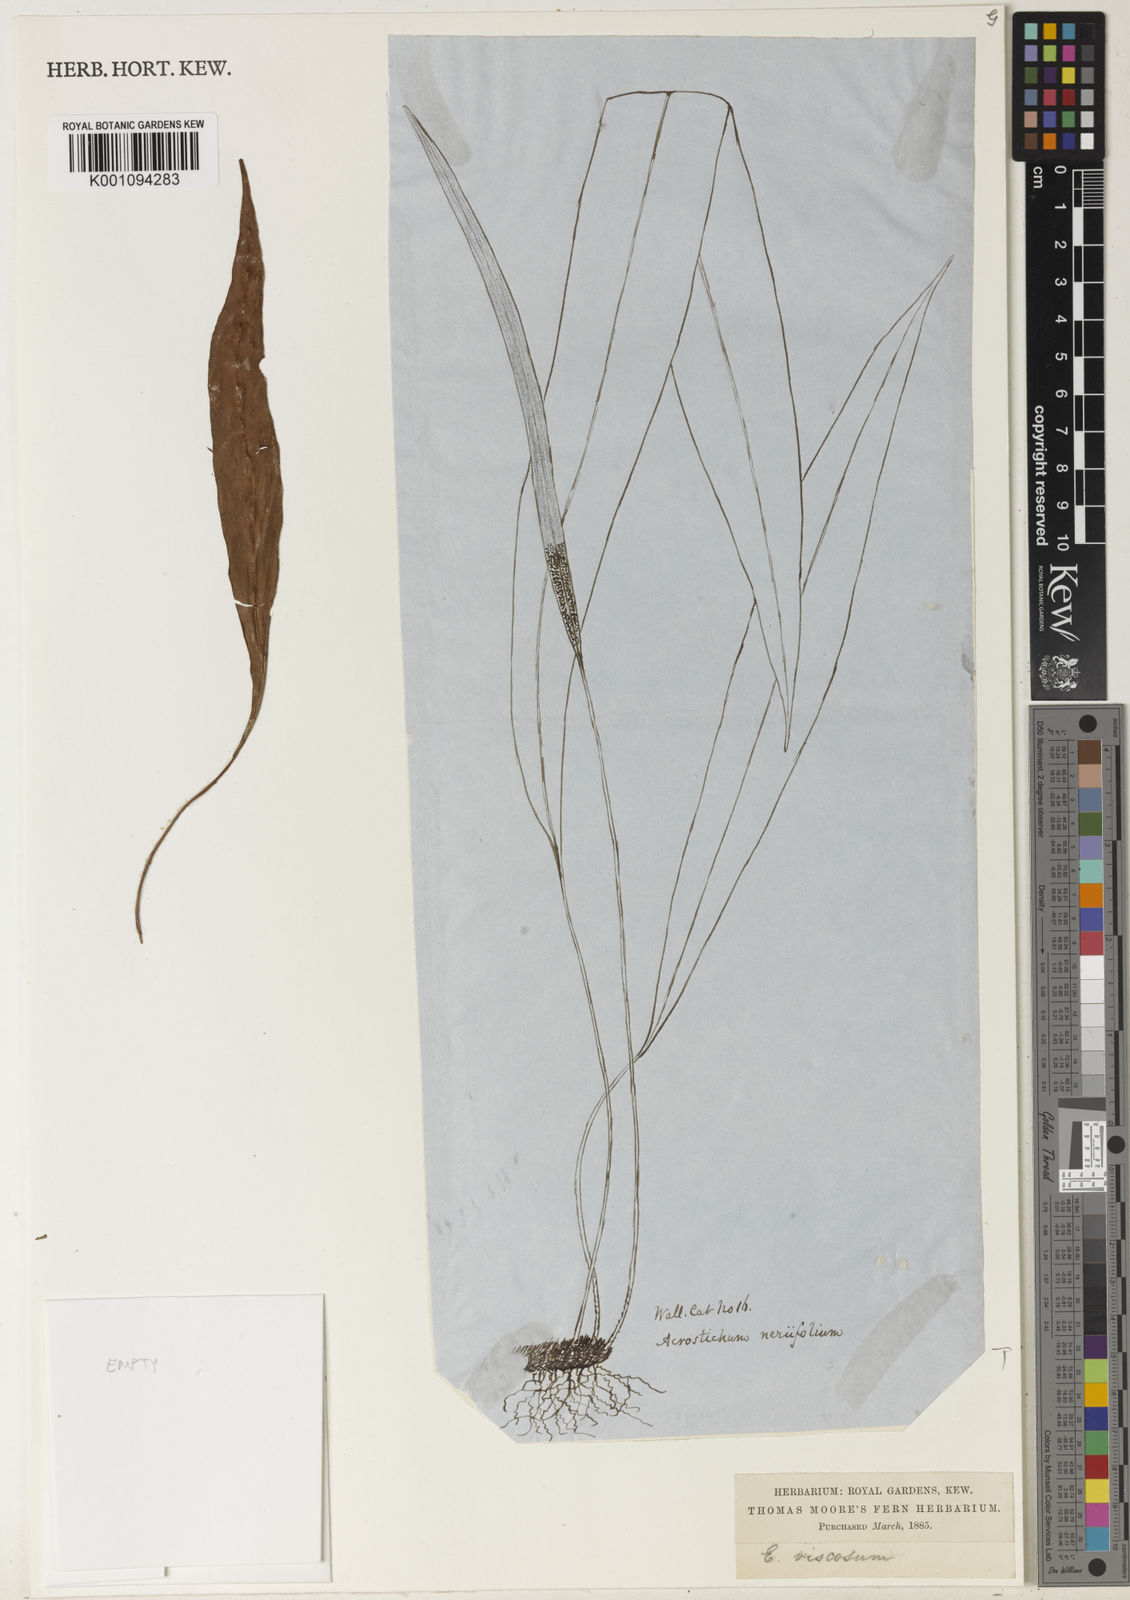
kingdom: Plantae
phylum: Tracheophyta
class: Polypodiopsida
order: Polypodiales
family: Dryopteridaceae
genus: Elaphoglossum
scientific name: Elaphoglossum stelligerum
